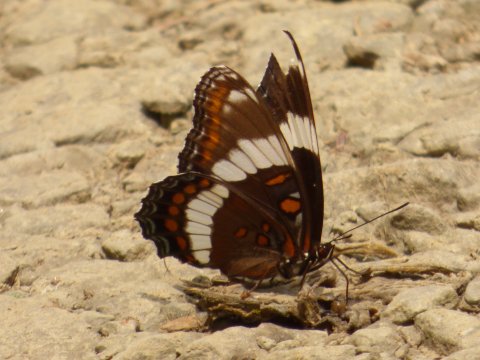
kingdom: Animalia
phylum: Arthropoda
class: Insecta
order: Lepidoptera
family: Nymphalidae
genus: Limenitis
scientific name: Limenitis arthemis
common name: Red-spotted Admiral
